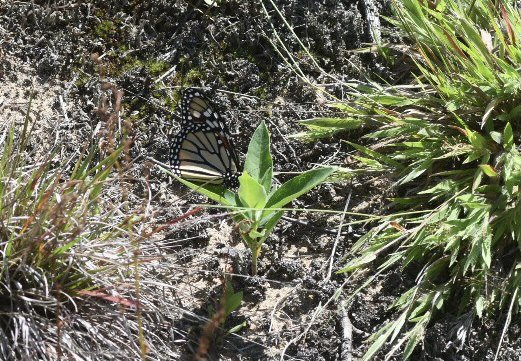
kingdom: Animalia
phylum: Arthropoda
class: Insecta
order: Lepidoptera
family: Nymphalidae
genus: Danaus
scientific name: Danaus plexippus
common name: Monarch
